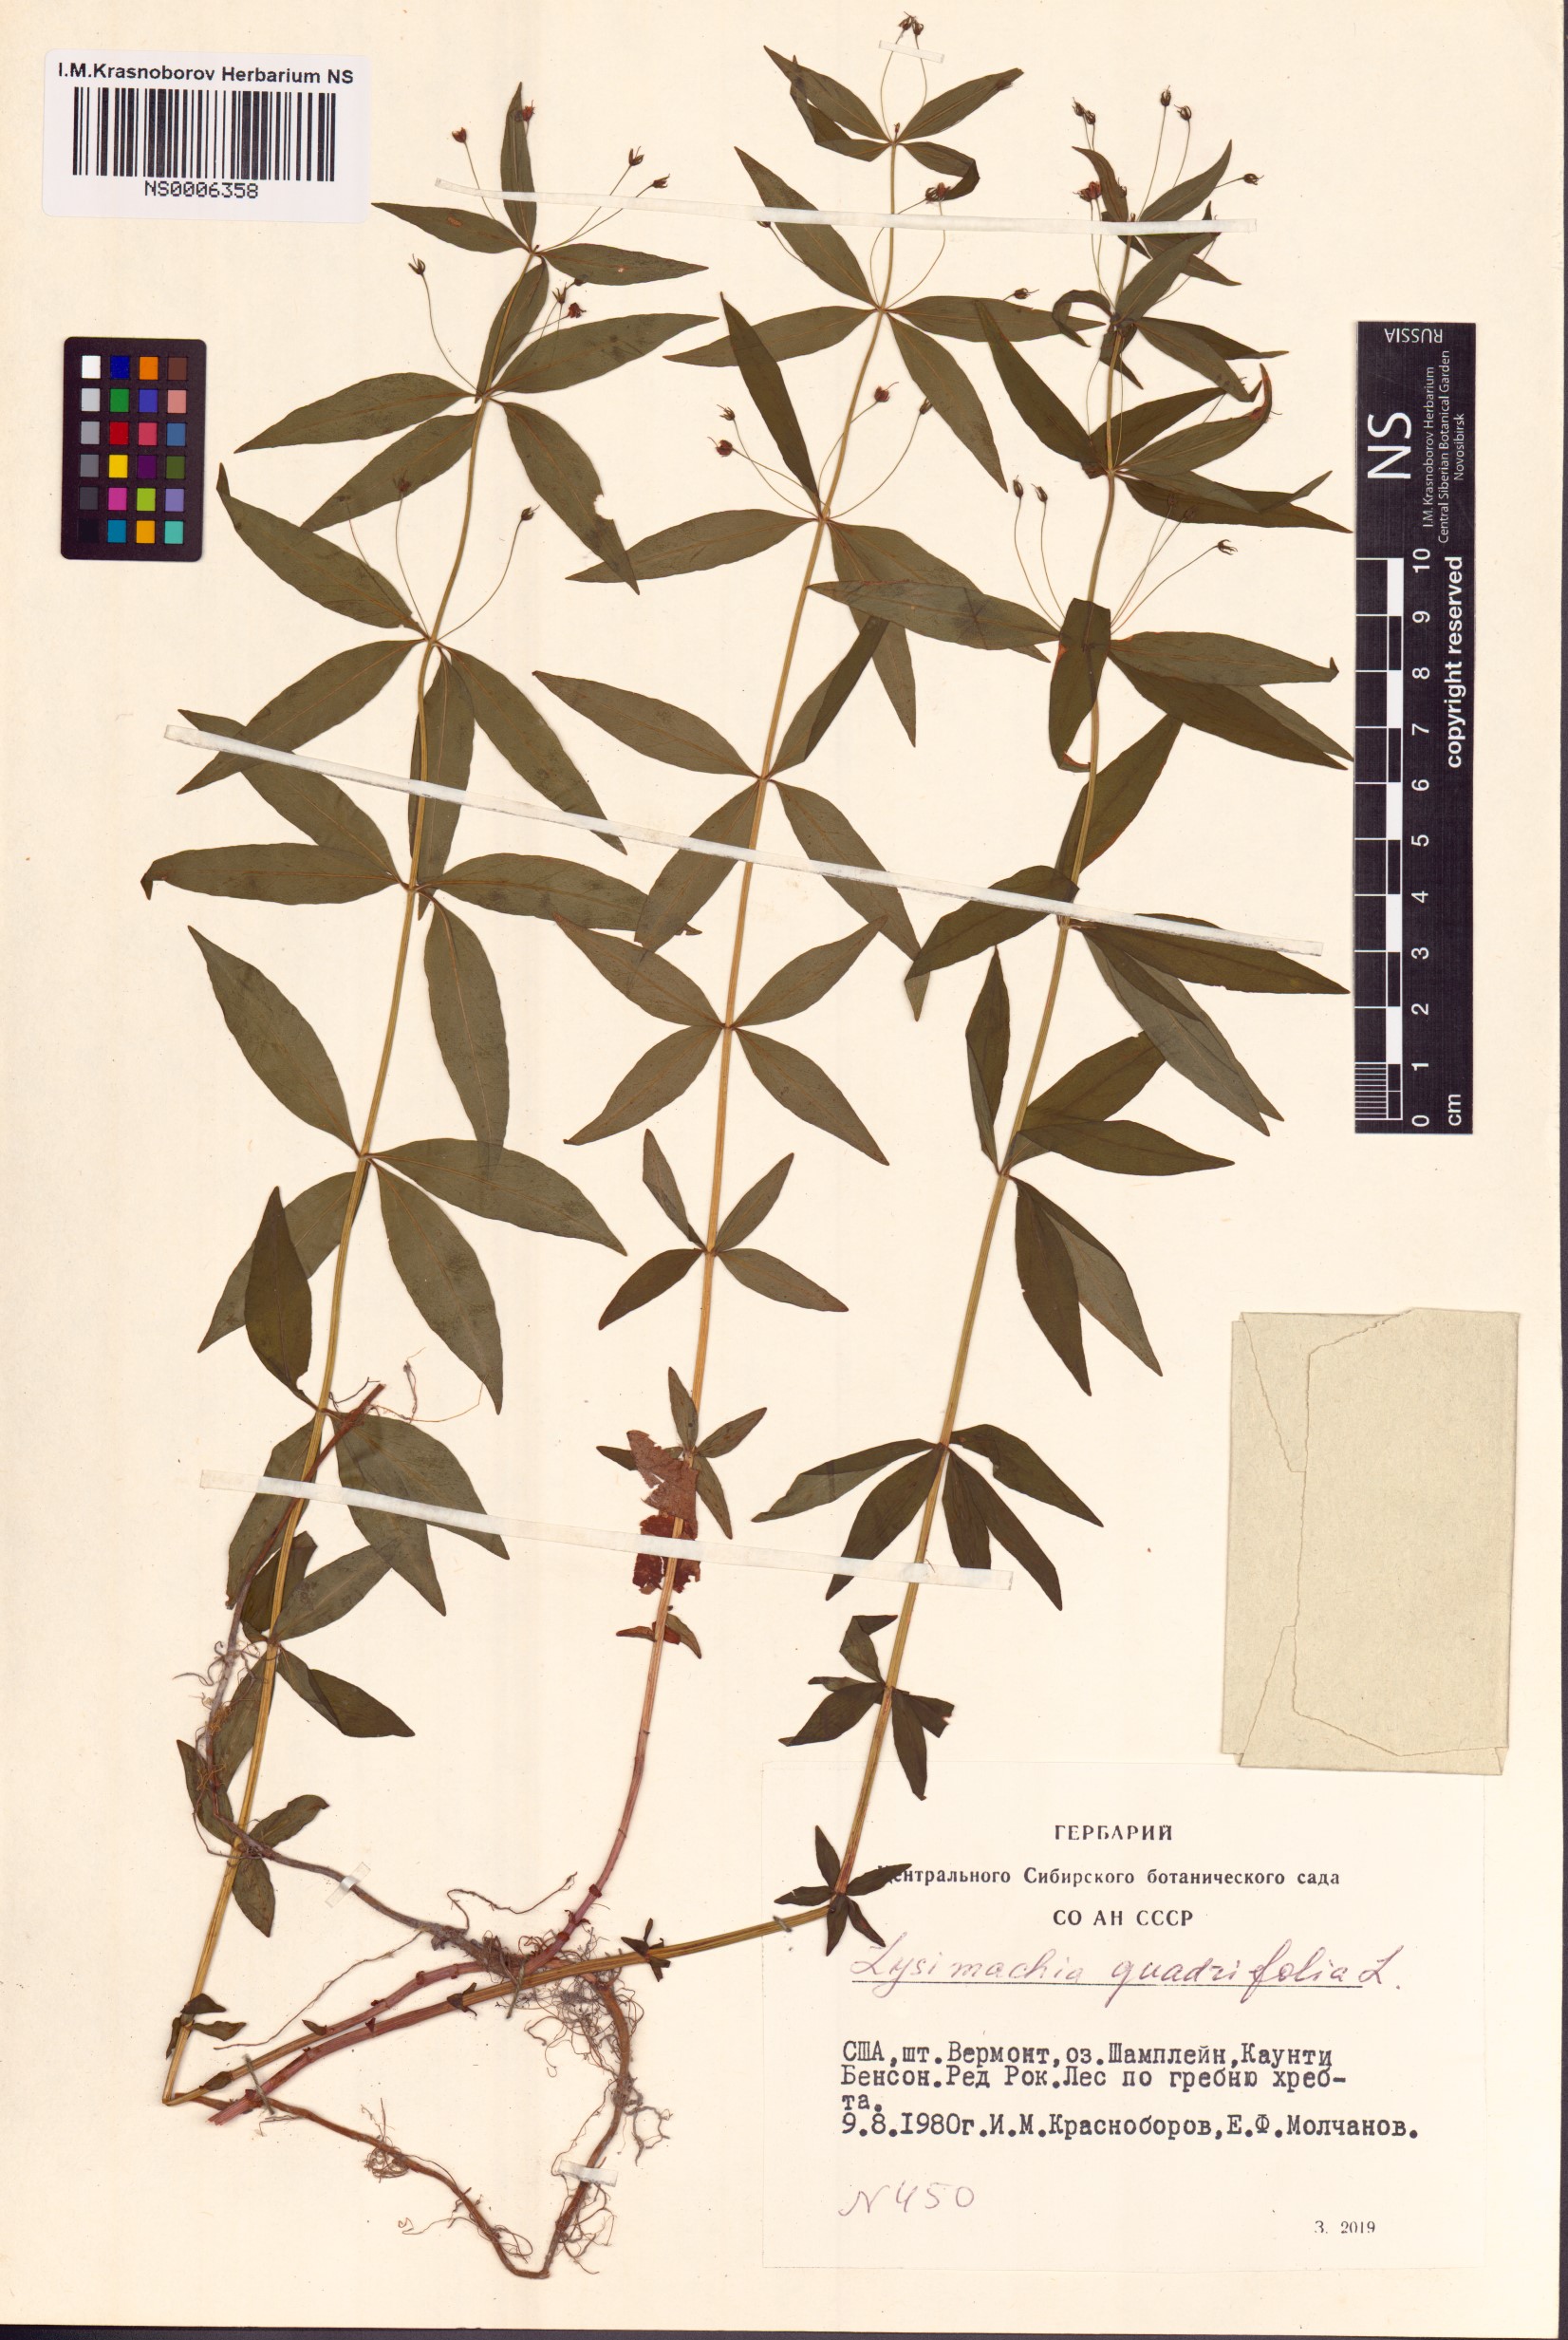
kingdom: Plantae
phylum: Tracheophyta
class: Magnoliopsida
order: Ericales
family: Primulaceae
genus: Lysimachia
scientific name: Lysimachia quadrifolia
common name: Whorled loosestrife
